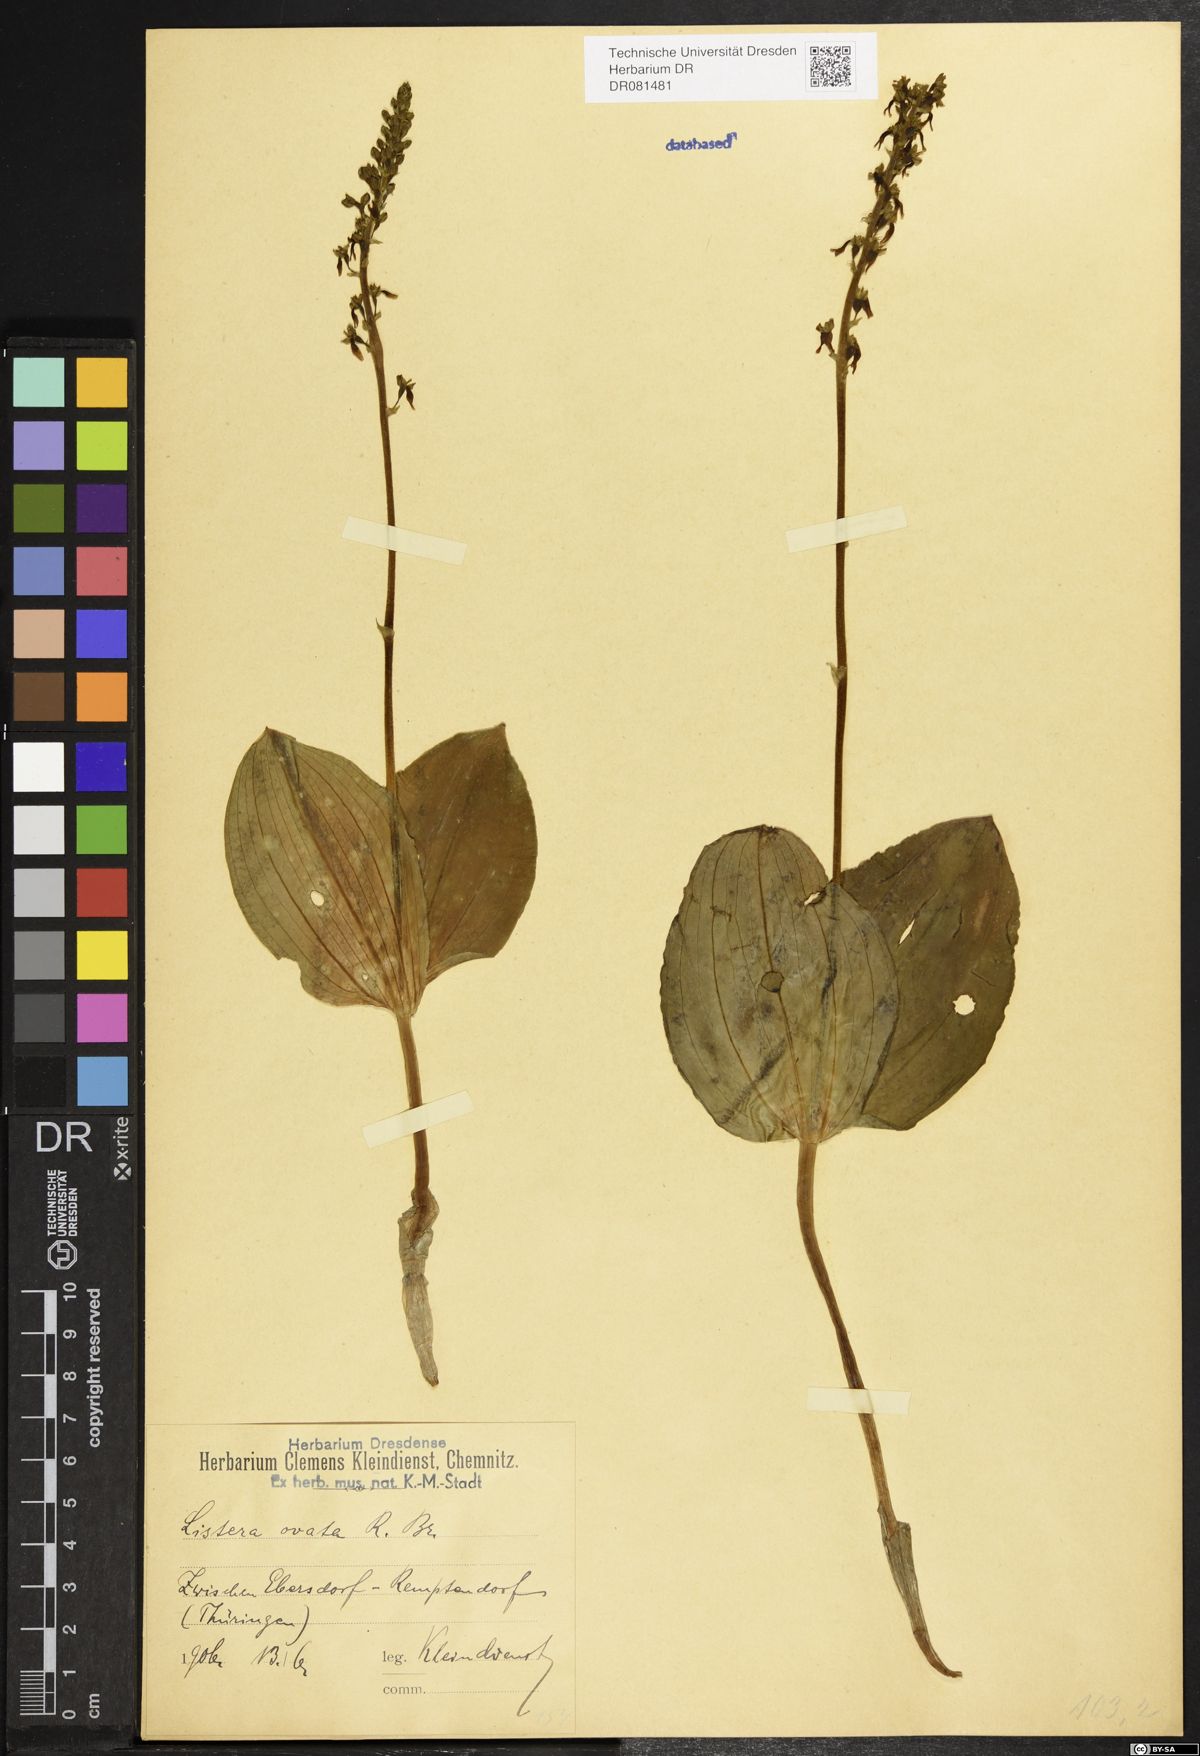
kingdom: Plantae
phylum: Tracheophyta
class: Liliopsida
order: Asparagales
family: Orchidaceae
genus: Neottia
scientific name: Neottia ovata
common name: Common twayblade
